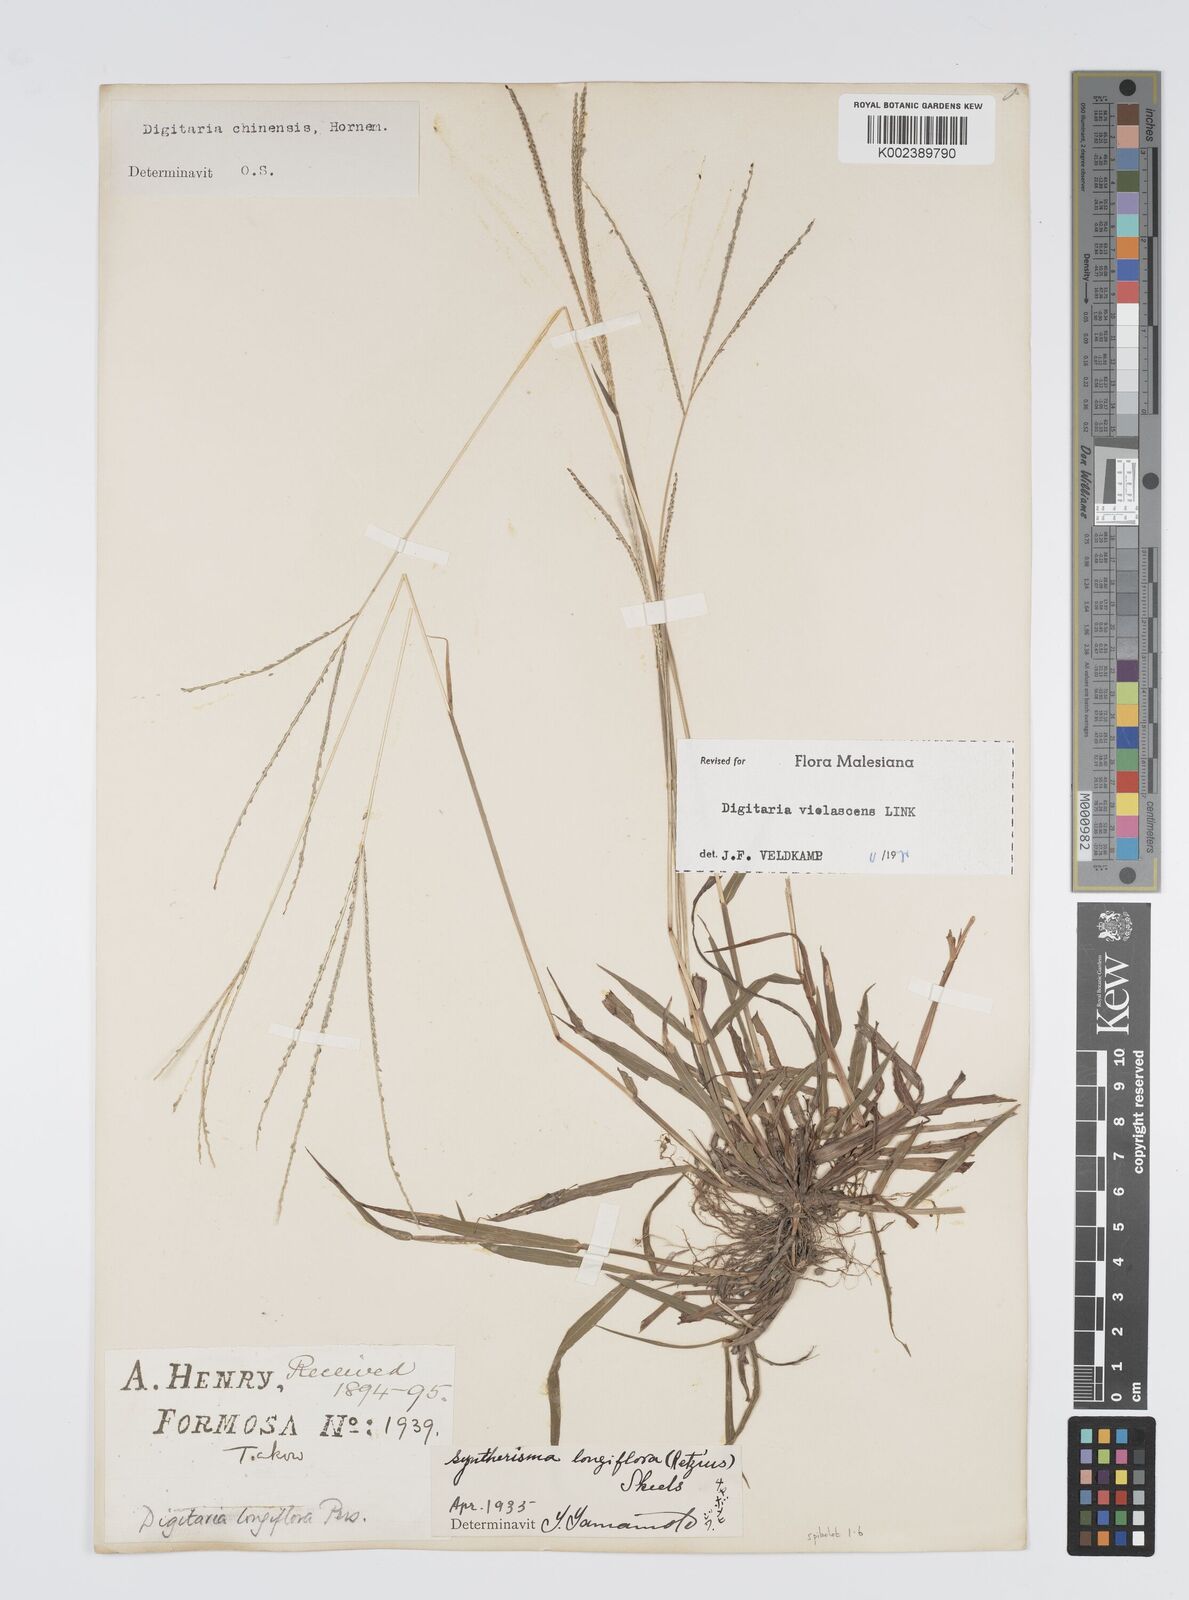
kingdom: Plantae
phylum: Tracheophyta
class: Liliopsida
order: Poales
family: Poaceae
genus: Digitaria
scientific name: Digitaria violascens
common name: Violet crabgrass
